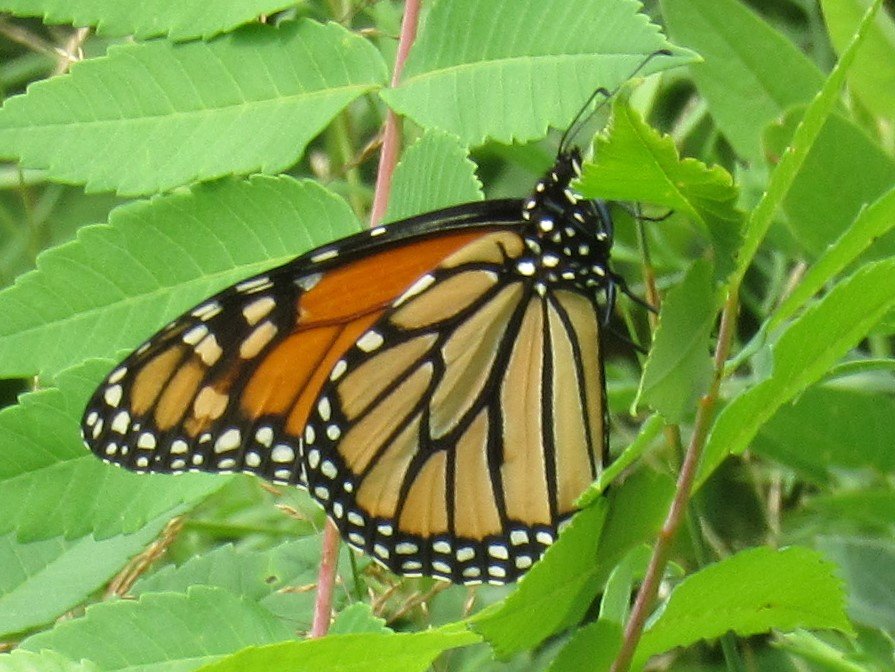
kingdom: Animalia
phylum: Arthropoda
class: Insecta
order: Lepidoptera
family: Nymphalidae
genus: Danaus
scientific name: Danaus plexippus
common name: Monarch
